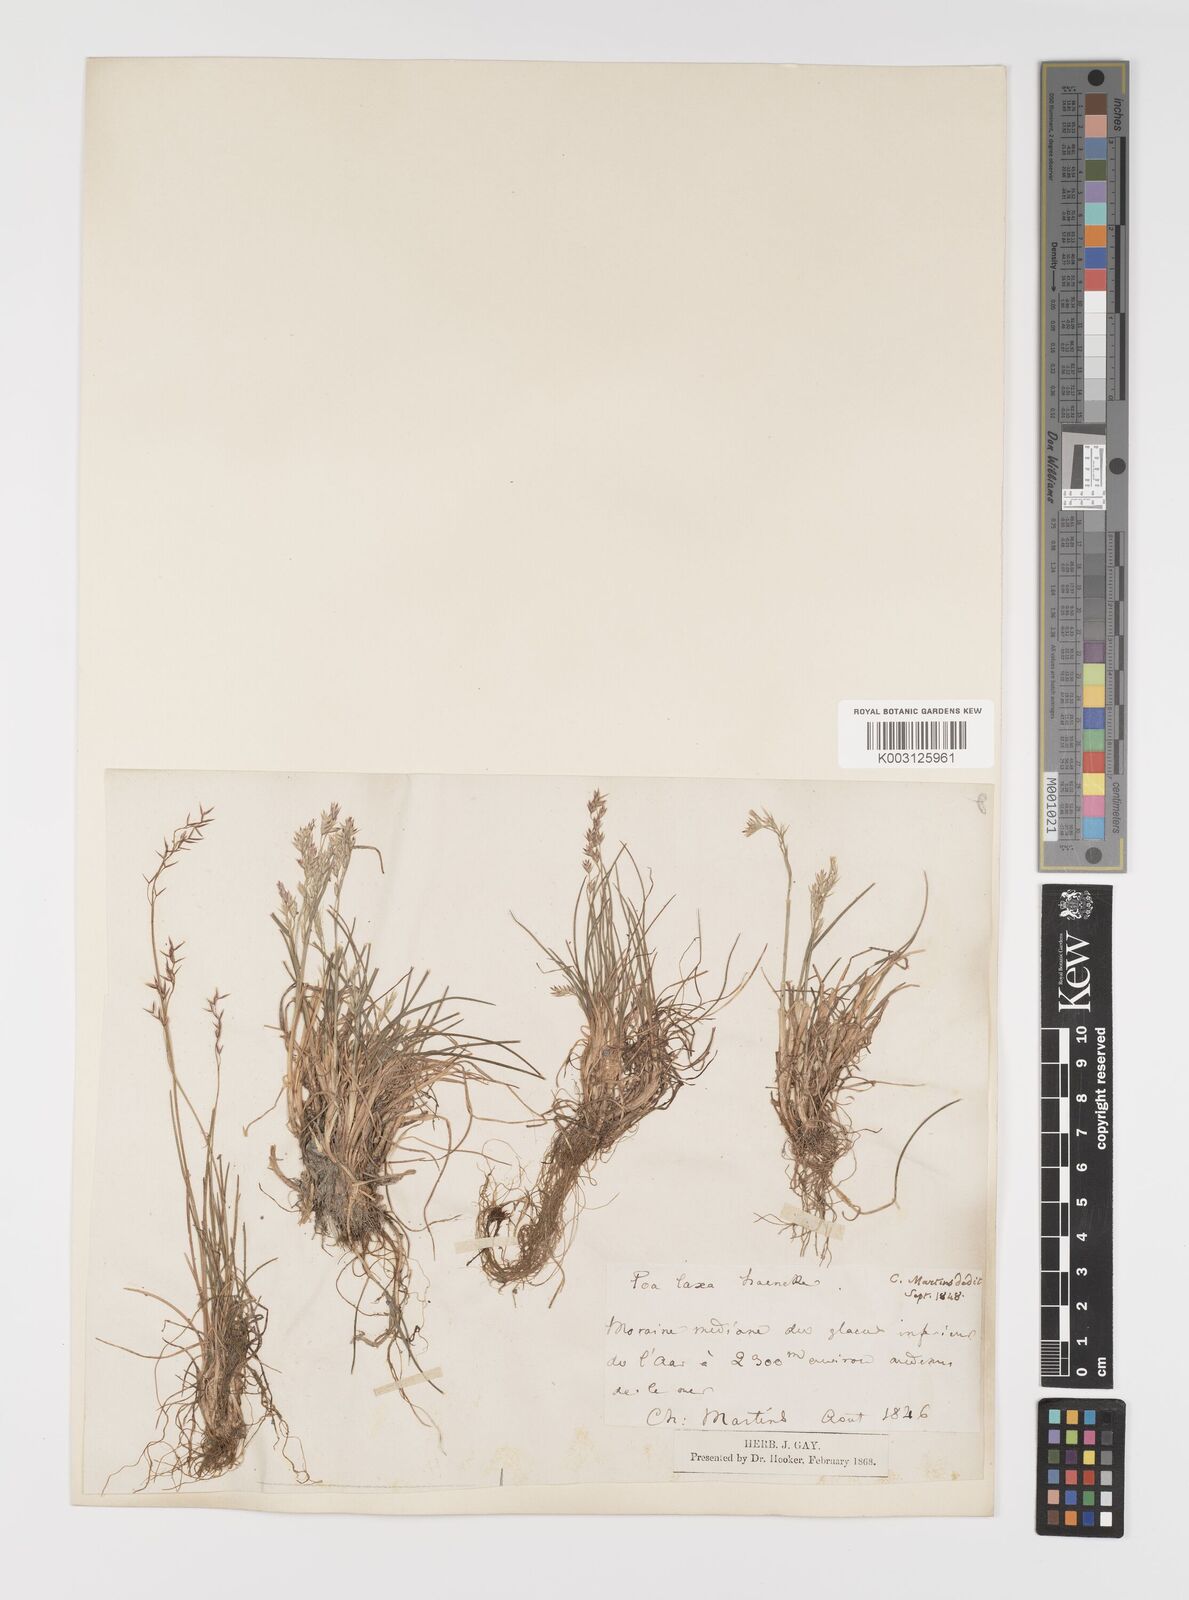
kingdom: Plantae
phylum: Tracheophyta
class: Liliopsida
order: Poales
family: Poaceae
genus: Poa
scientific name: Poa laxa
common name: Lax bluegrass
